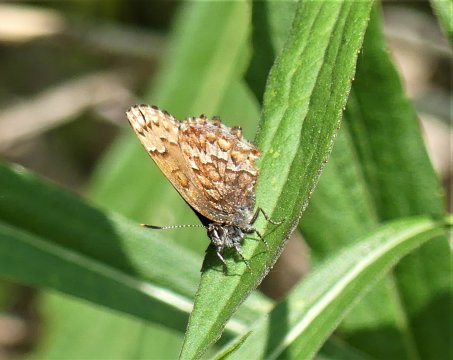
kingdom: Animalia
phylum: Arthropoda
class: Insecta
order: Lepidoptera
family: Lycaenidae
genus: Incisalia
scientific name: Incisalia niphon
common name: Eastern Pine Elfin
